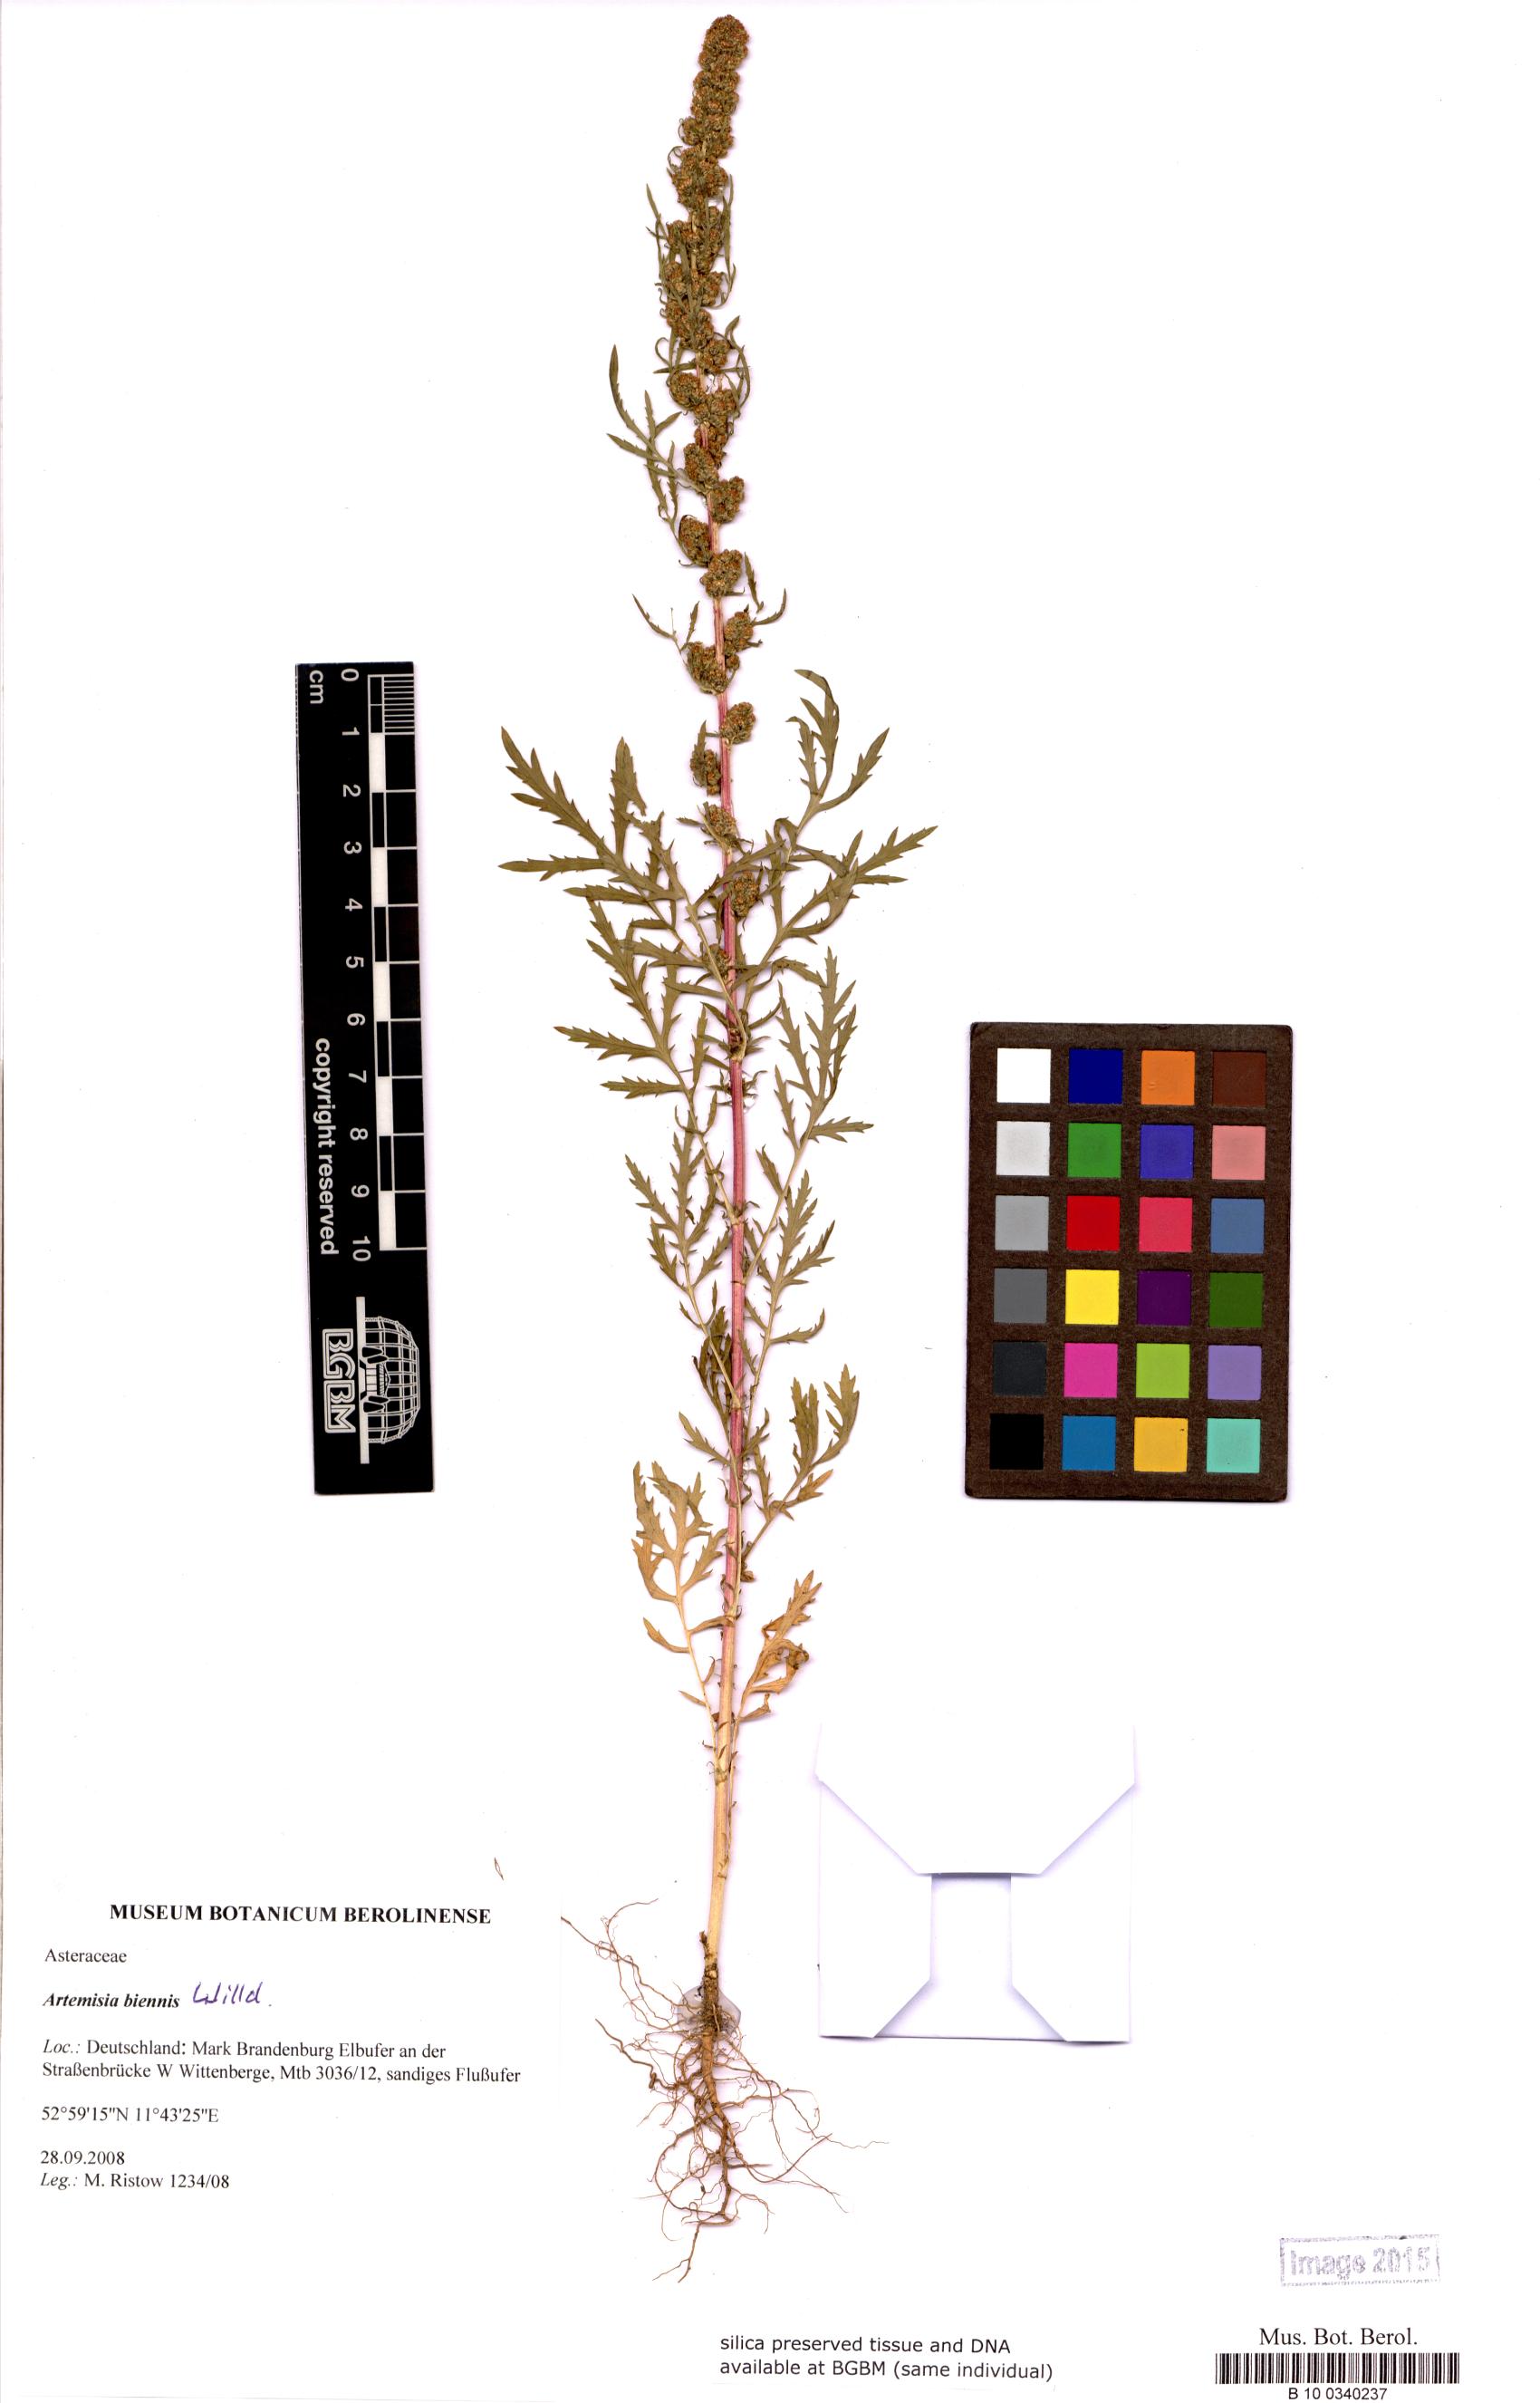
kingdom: Plantae
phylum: Tracheophyta
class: Magnoliopsida
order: Asterales
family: Asteraceae
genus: Artemisia
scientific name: Artemisia biennis
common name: Biennial wormwood
